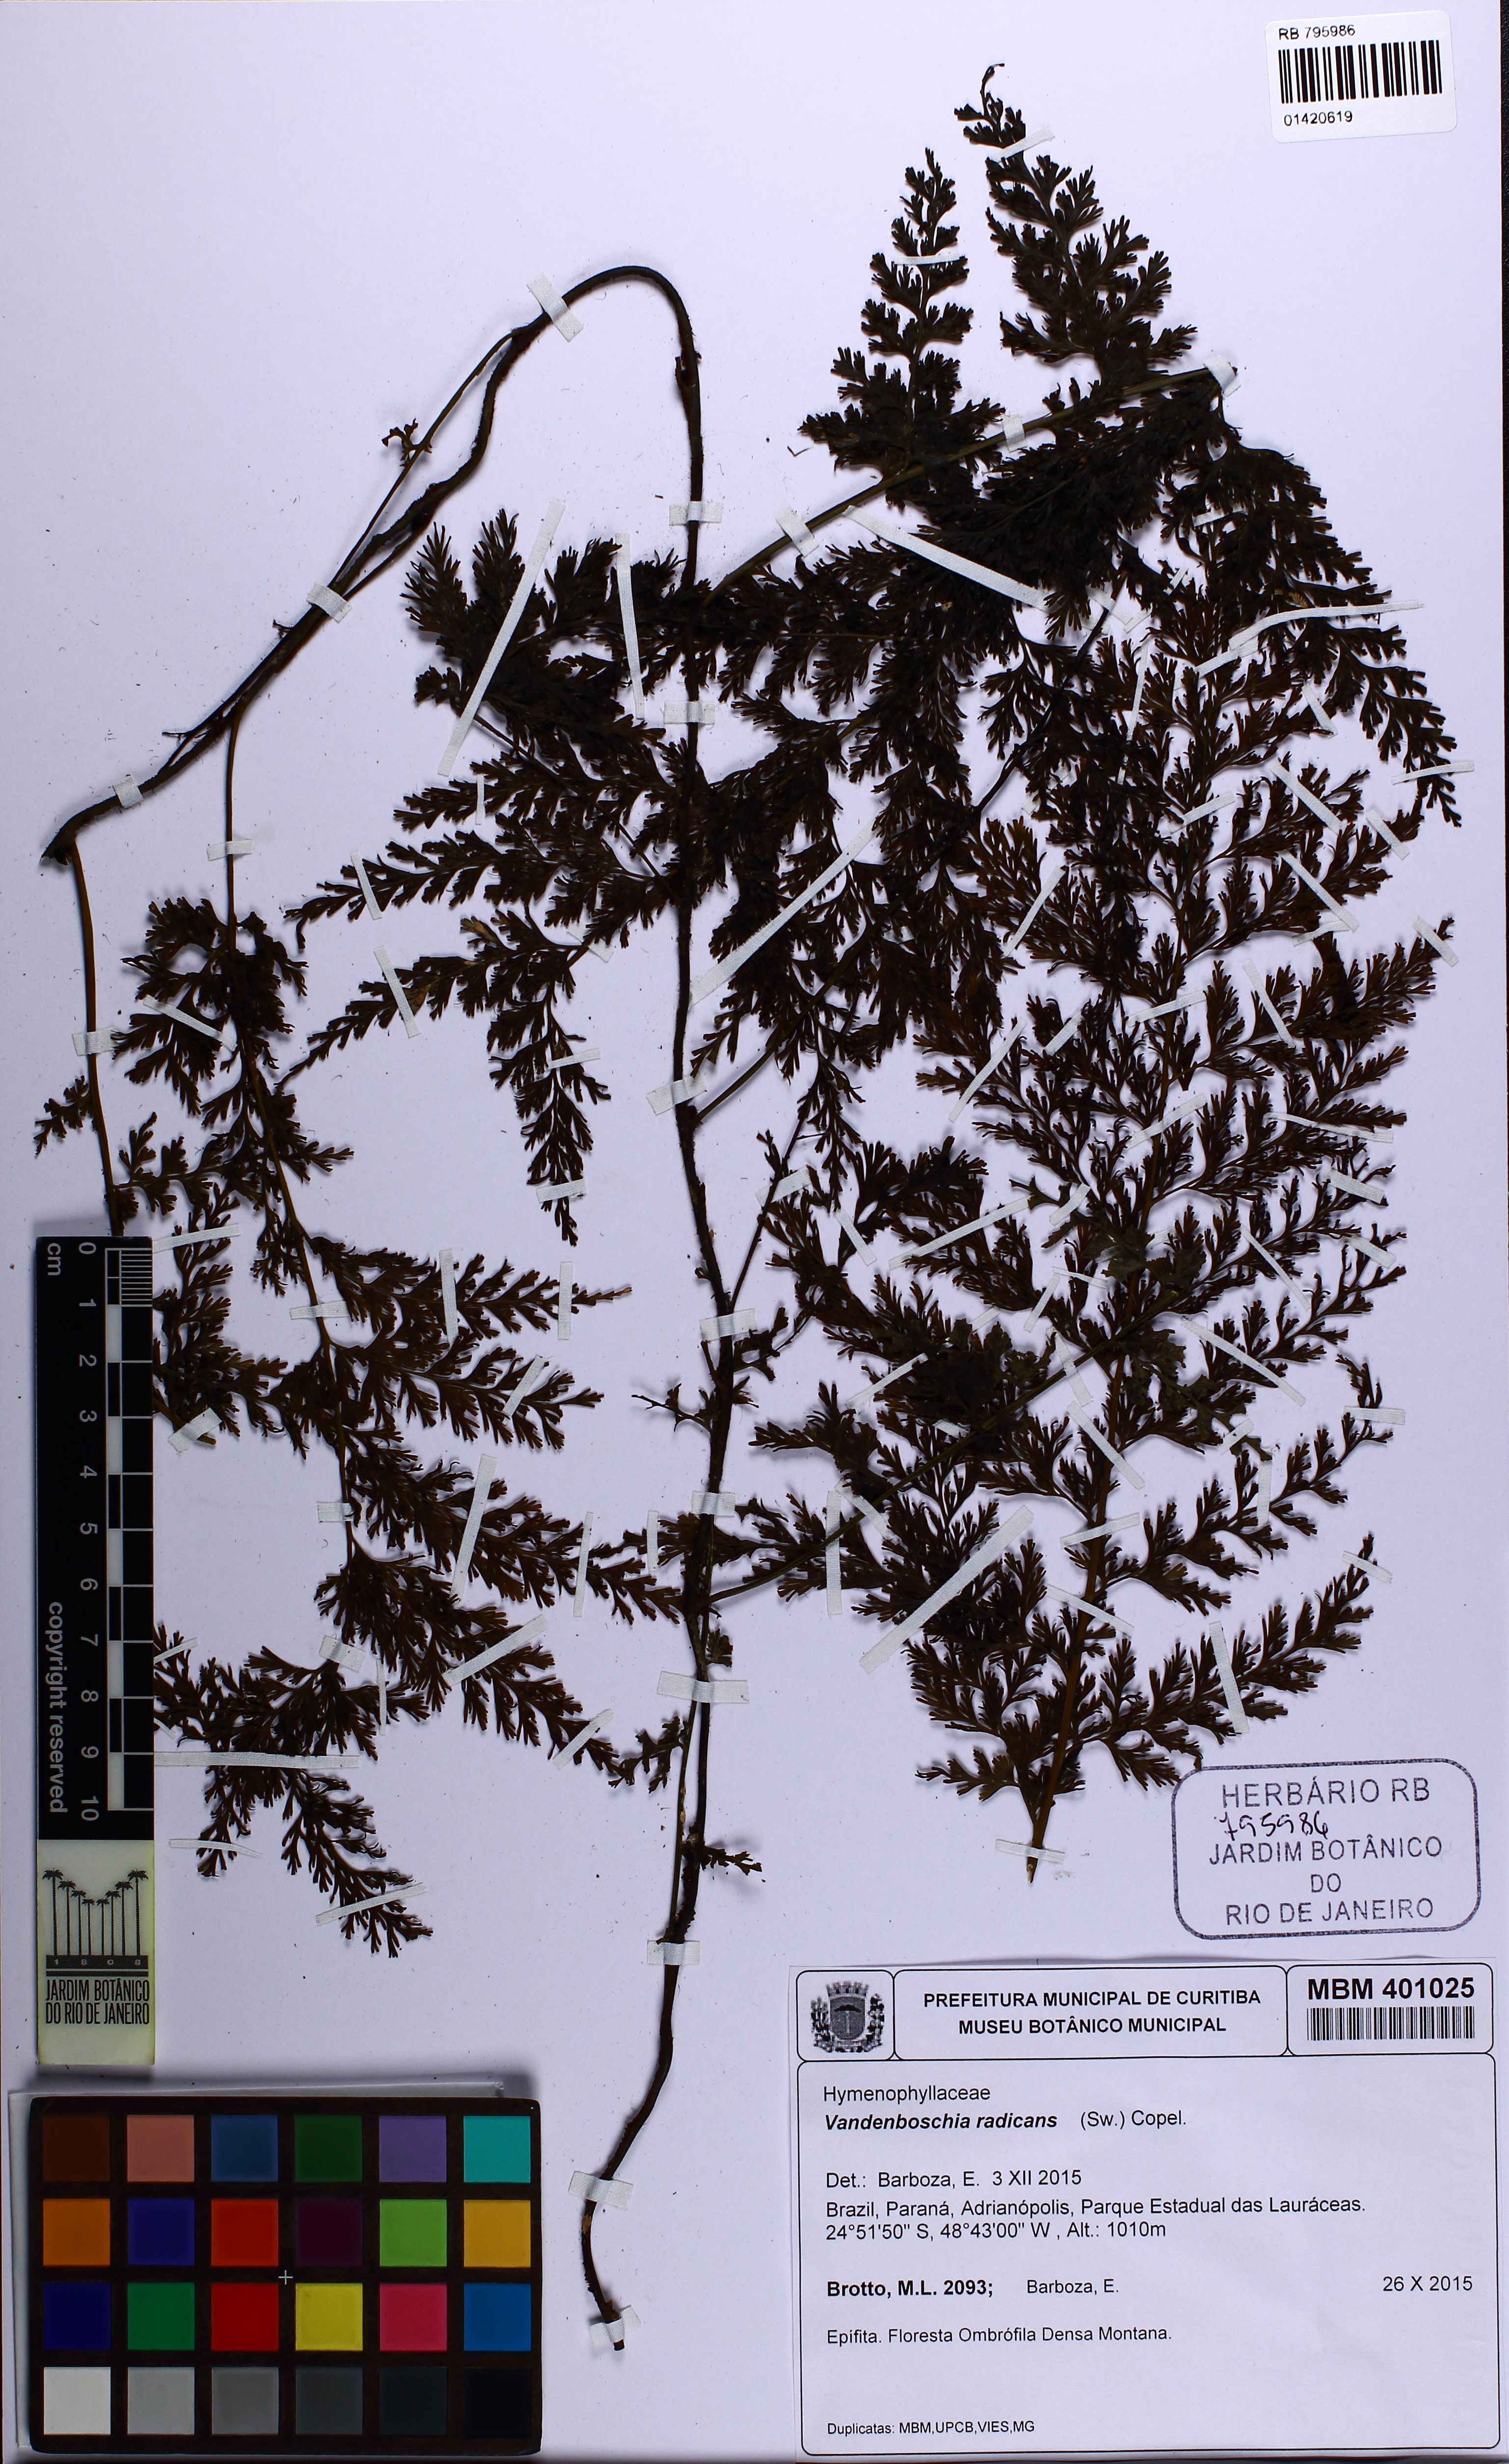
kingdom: Plantae
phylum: Tracheophyta
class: Polypodiopsida
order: Hymenophyllales
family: Hymenophyllaceae
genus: Vandenboschia
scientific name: Vandenboschia radicans
